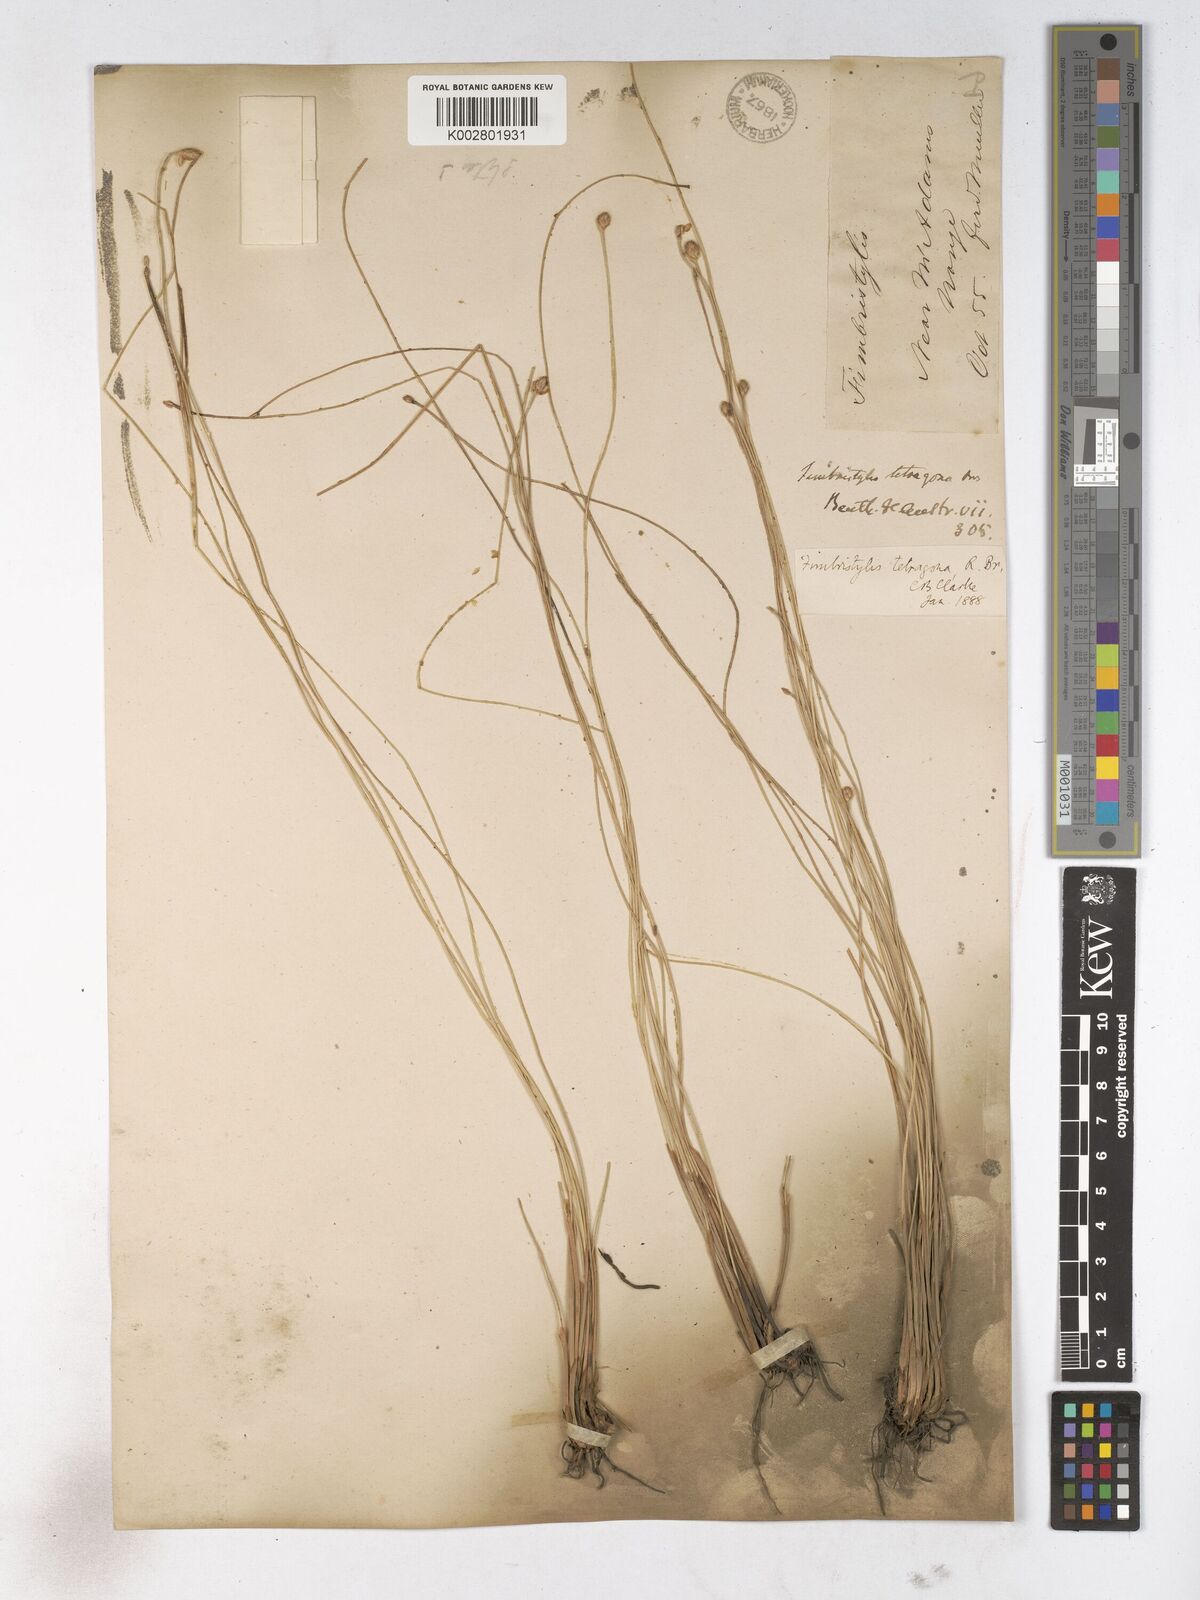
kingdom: Plantae
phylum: Tracheophyta
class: Liliopsida
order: Poales
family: Cyperaceae
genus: Fimbristylis
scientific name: Fimbristylis tetragona
